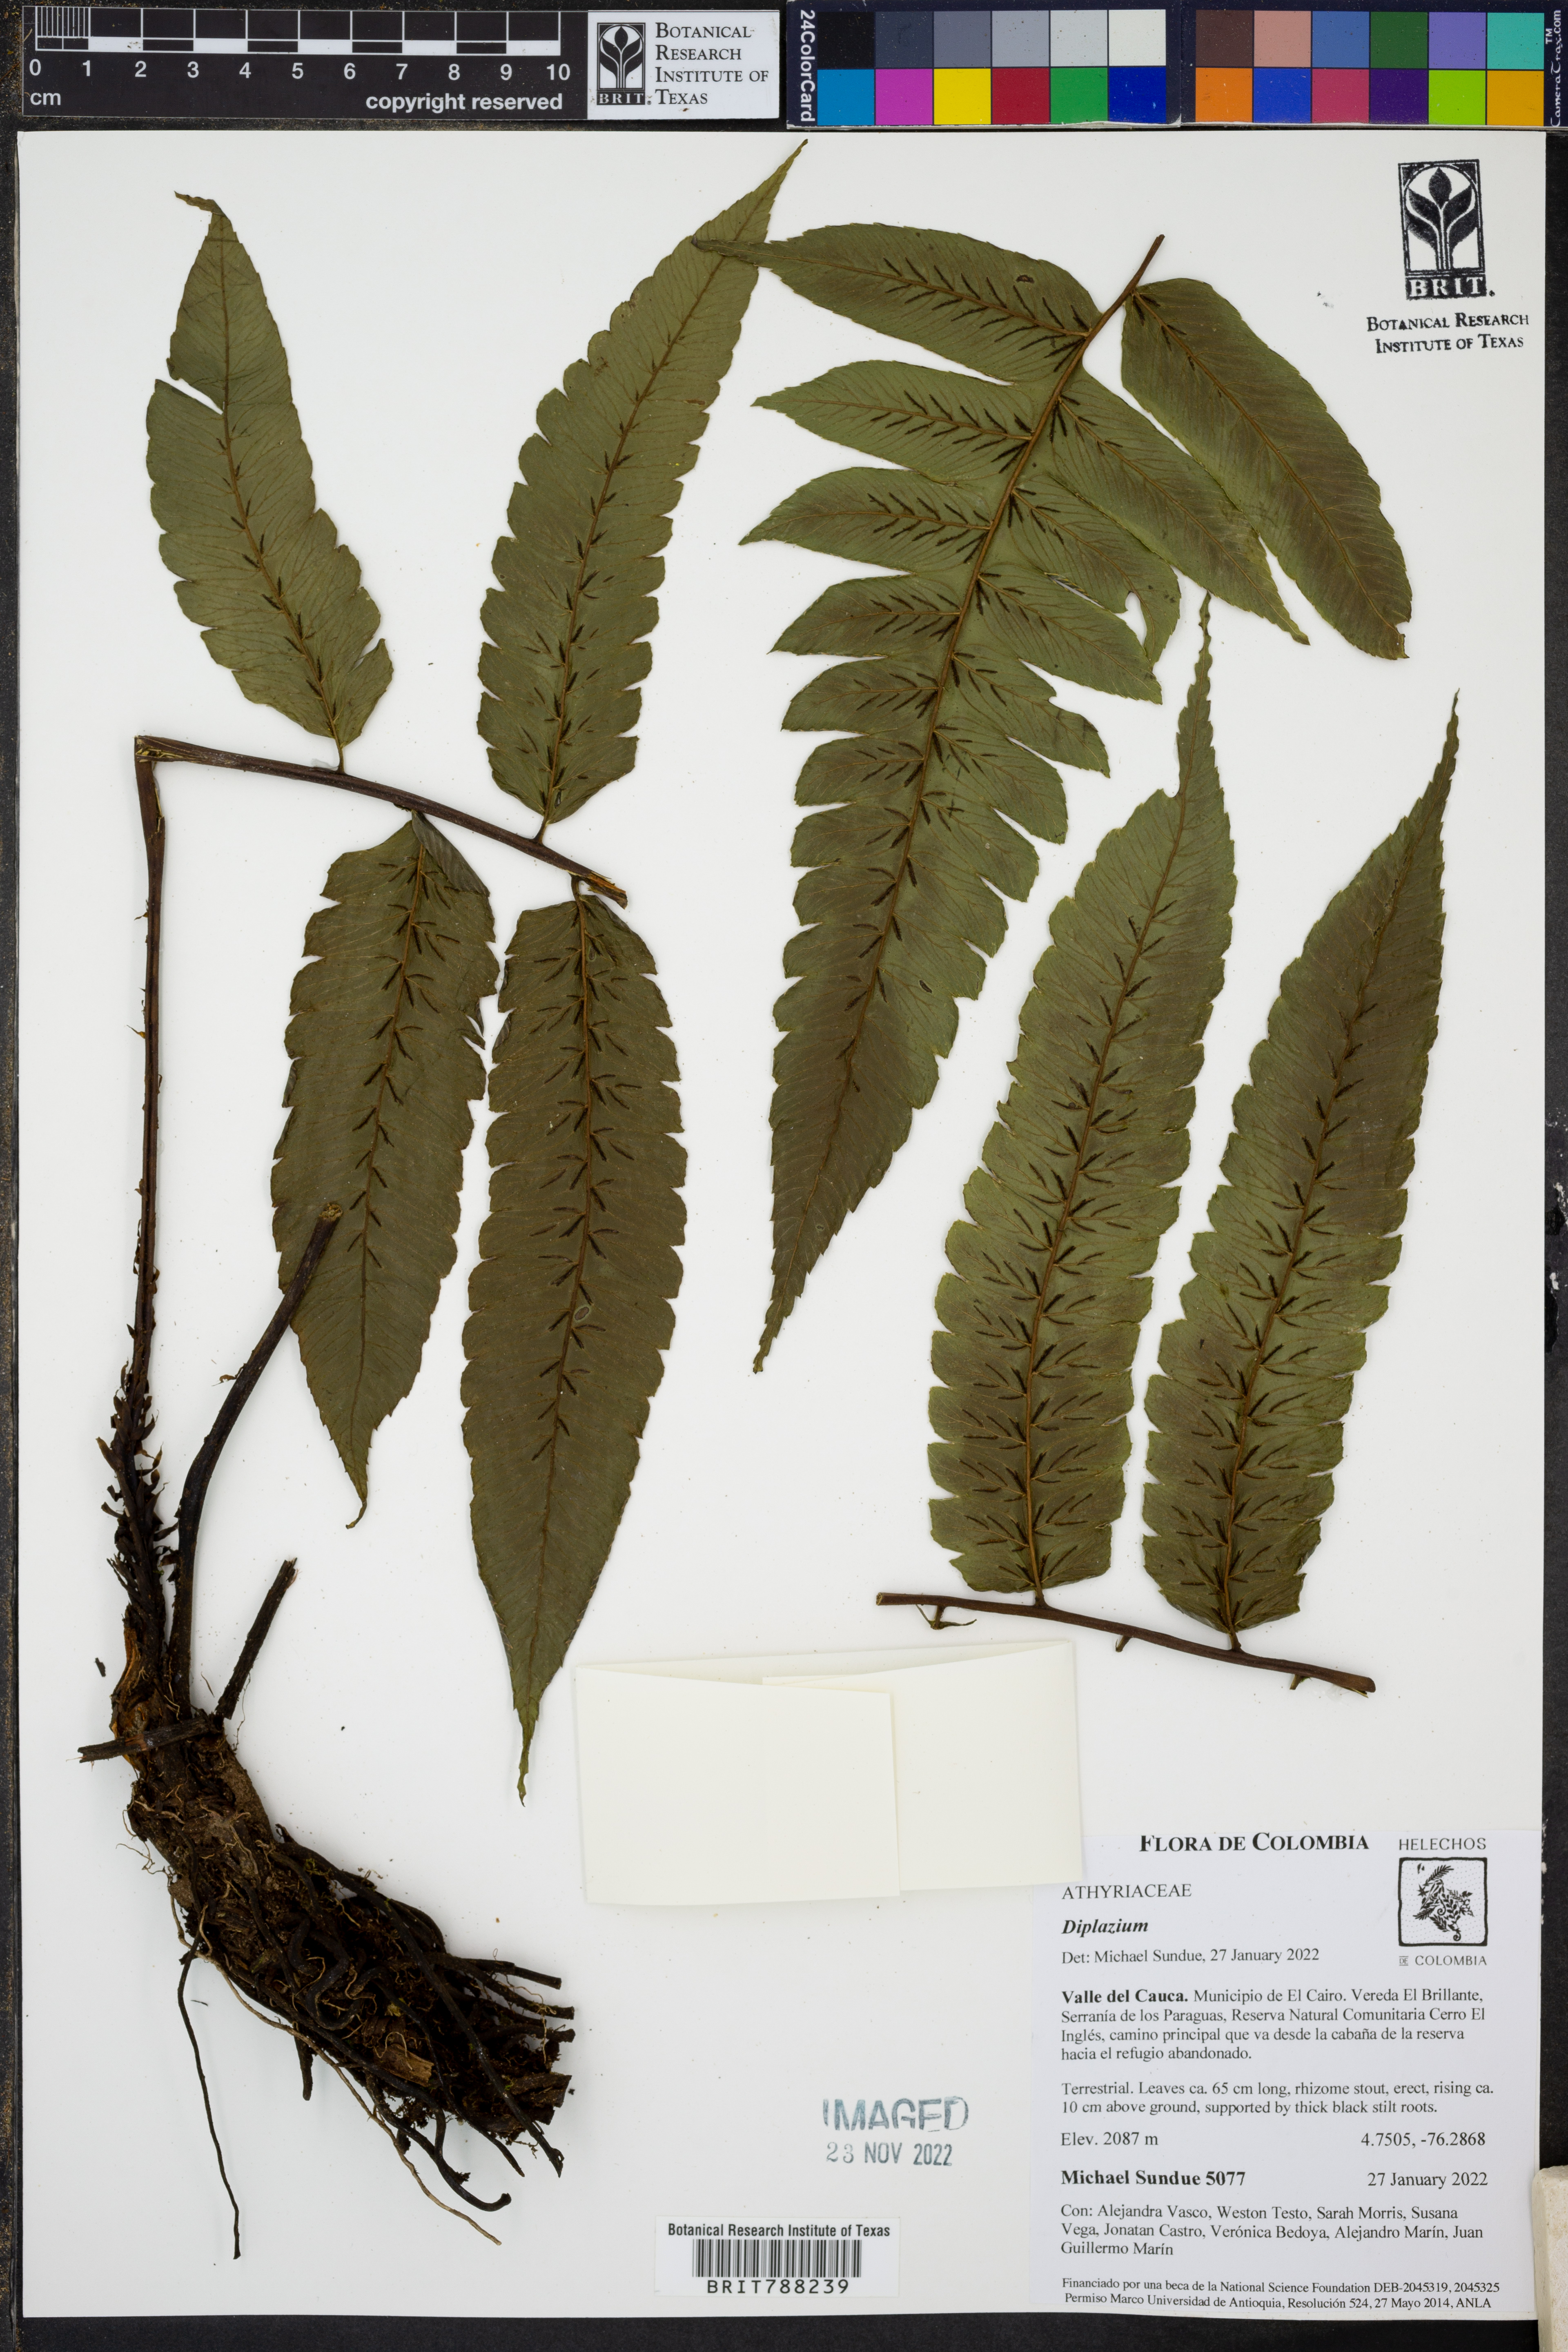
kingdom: Plantae
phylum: Tracheophyta
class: Polypodiopsida
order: Polypodiales
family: Athyriaceae
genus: Diplazium
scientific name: Diplazium balliviani
